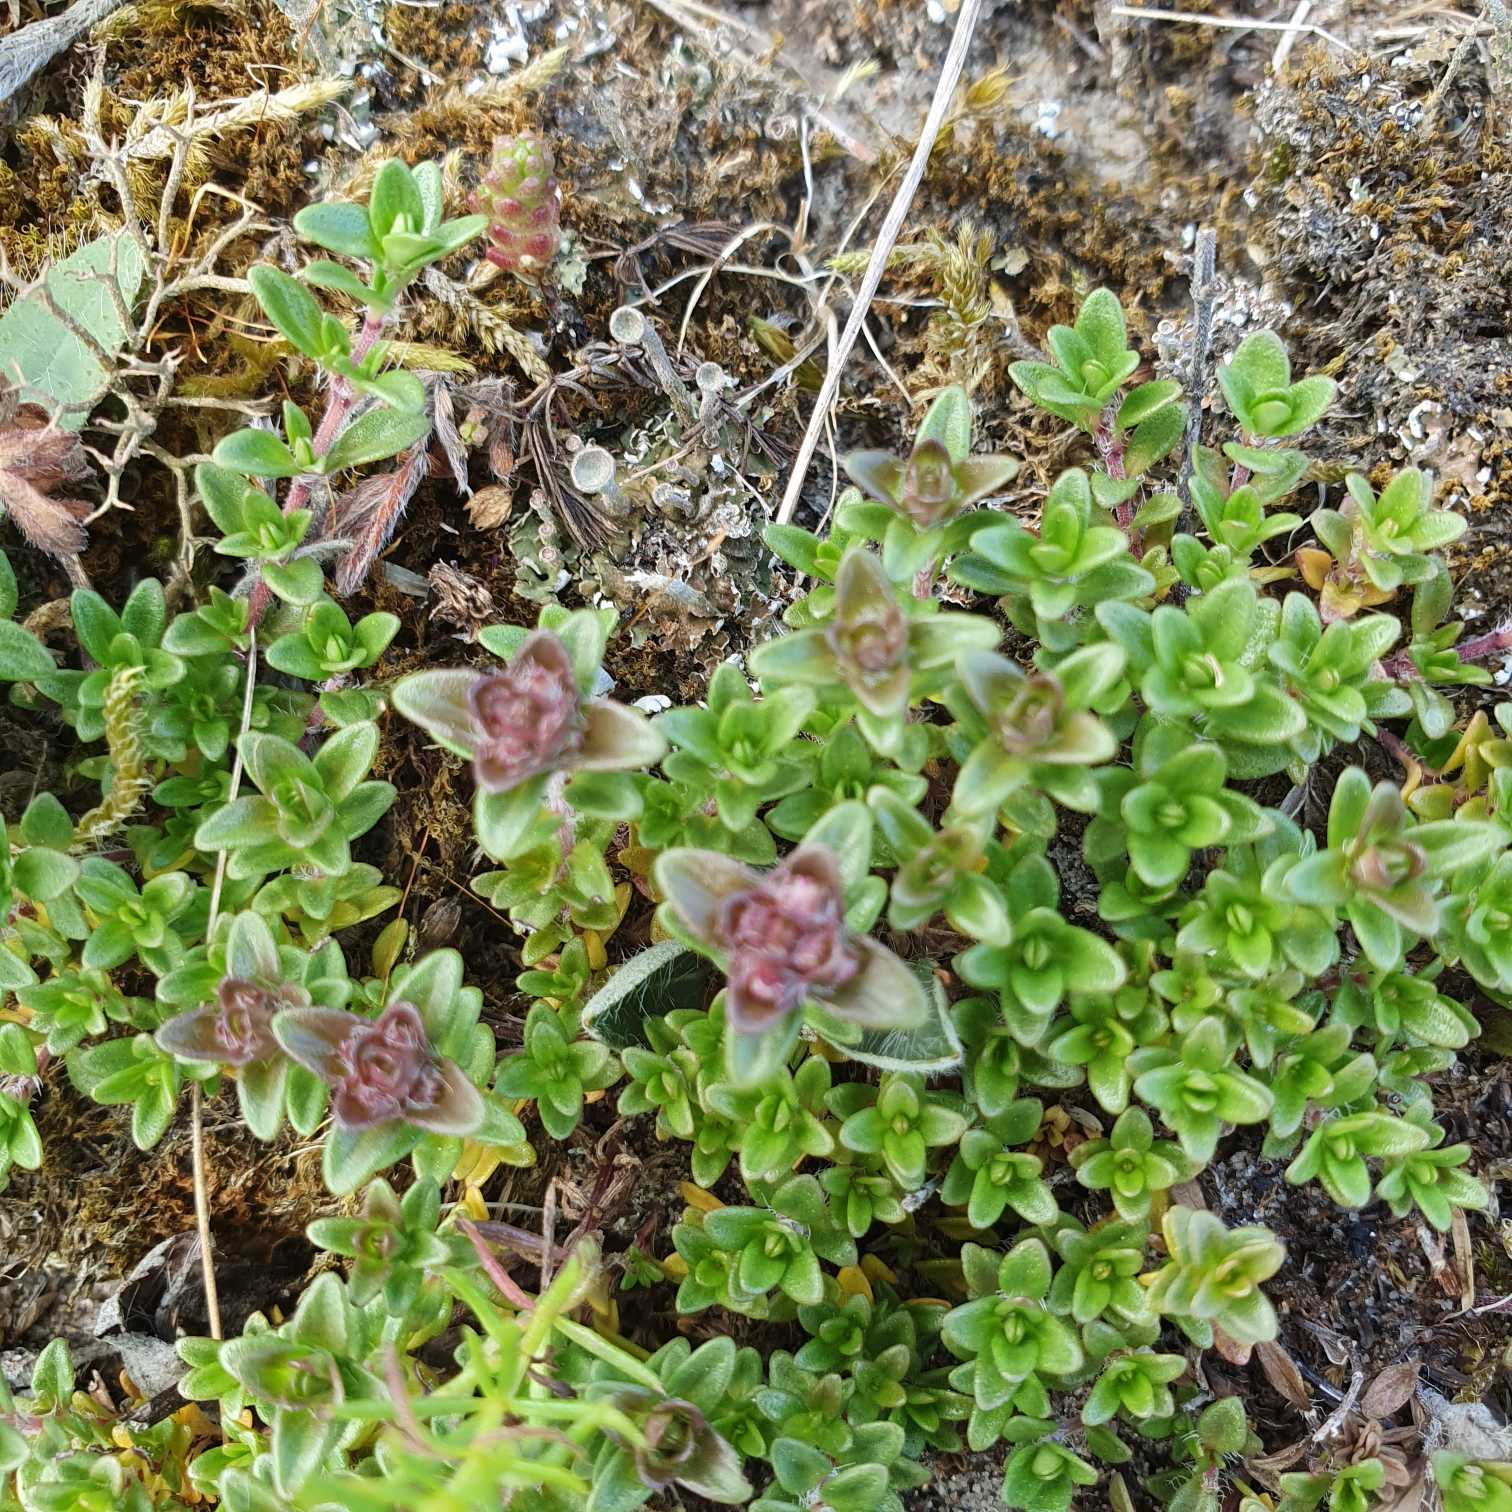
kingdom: Plantae
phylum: Tracheophyta
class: Magnoliopsida
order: Lamiales
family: Lamiaceae
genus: Thymus
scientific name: Thymus serpyllum
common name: Smalbladet timian
